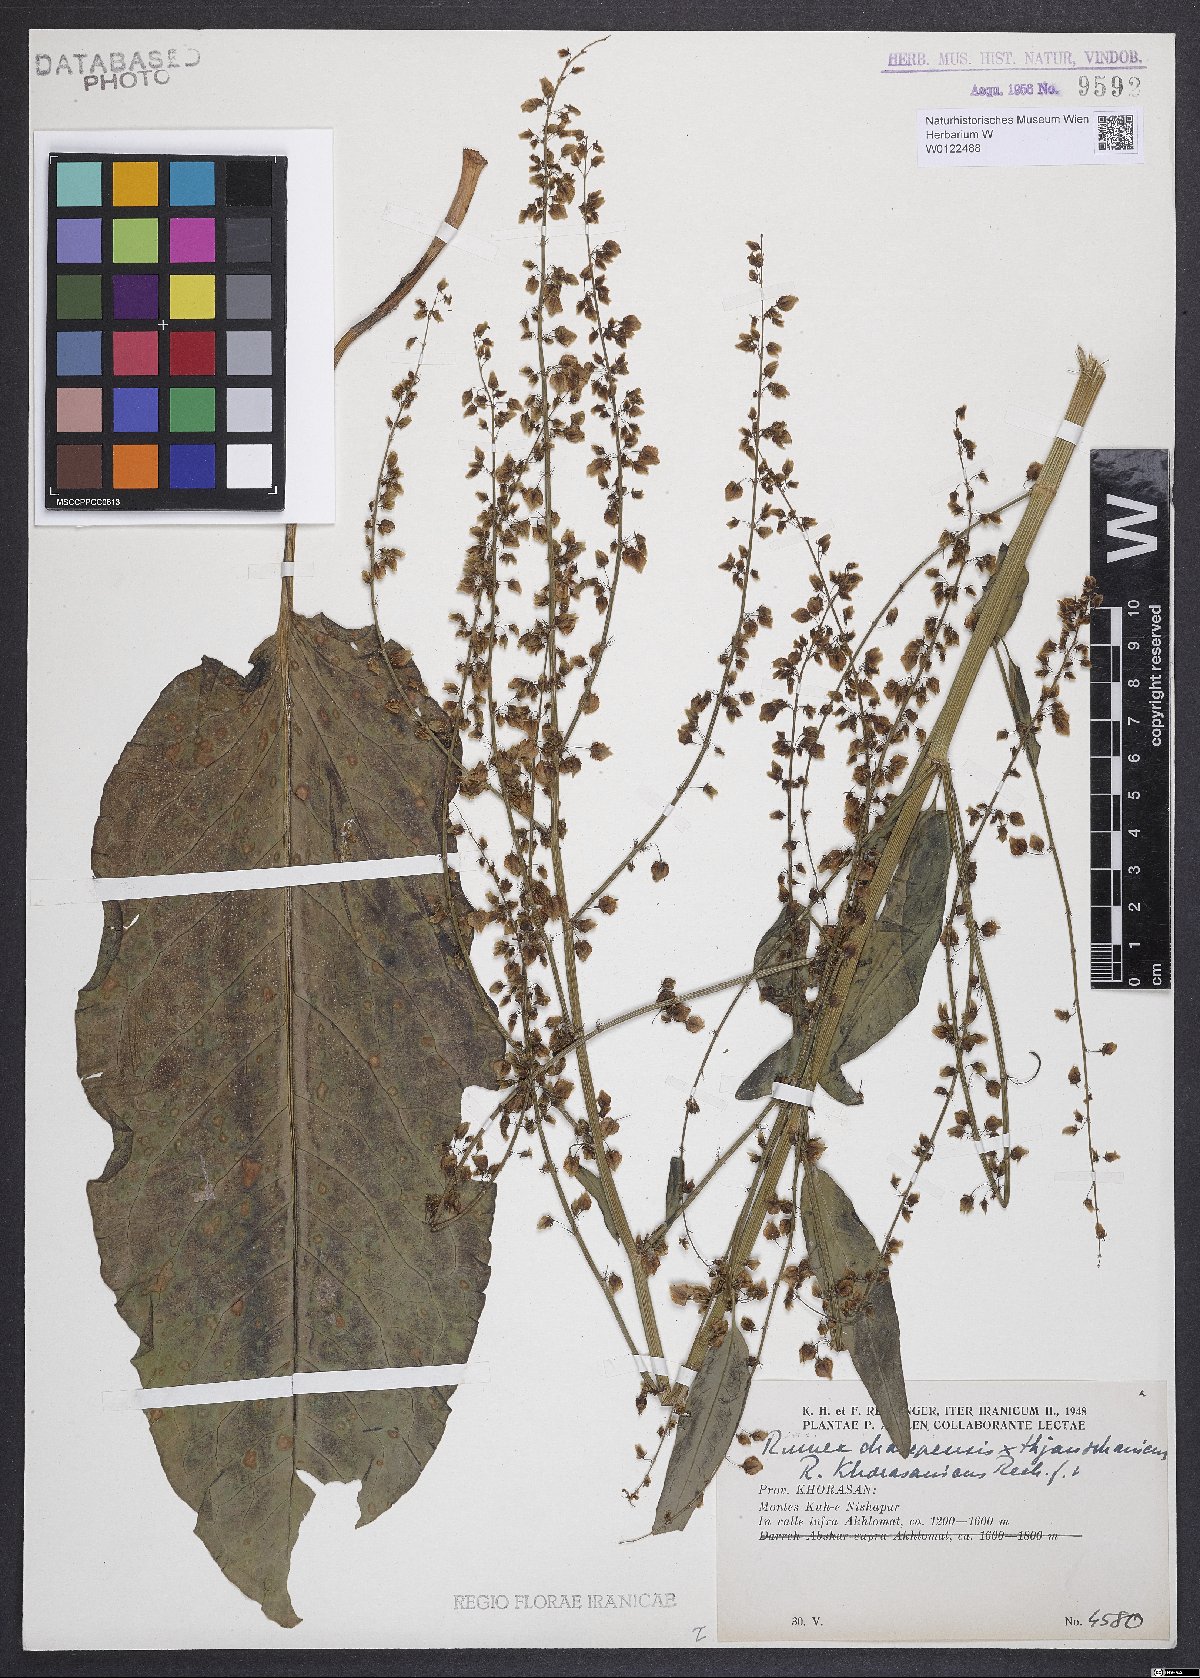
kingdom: Plantae
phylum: Tracheophyta
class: Magnoliopsida
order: Caryophyllales
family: Polygonaceae
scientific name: Polygonaceae
